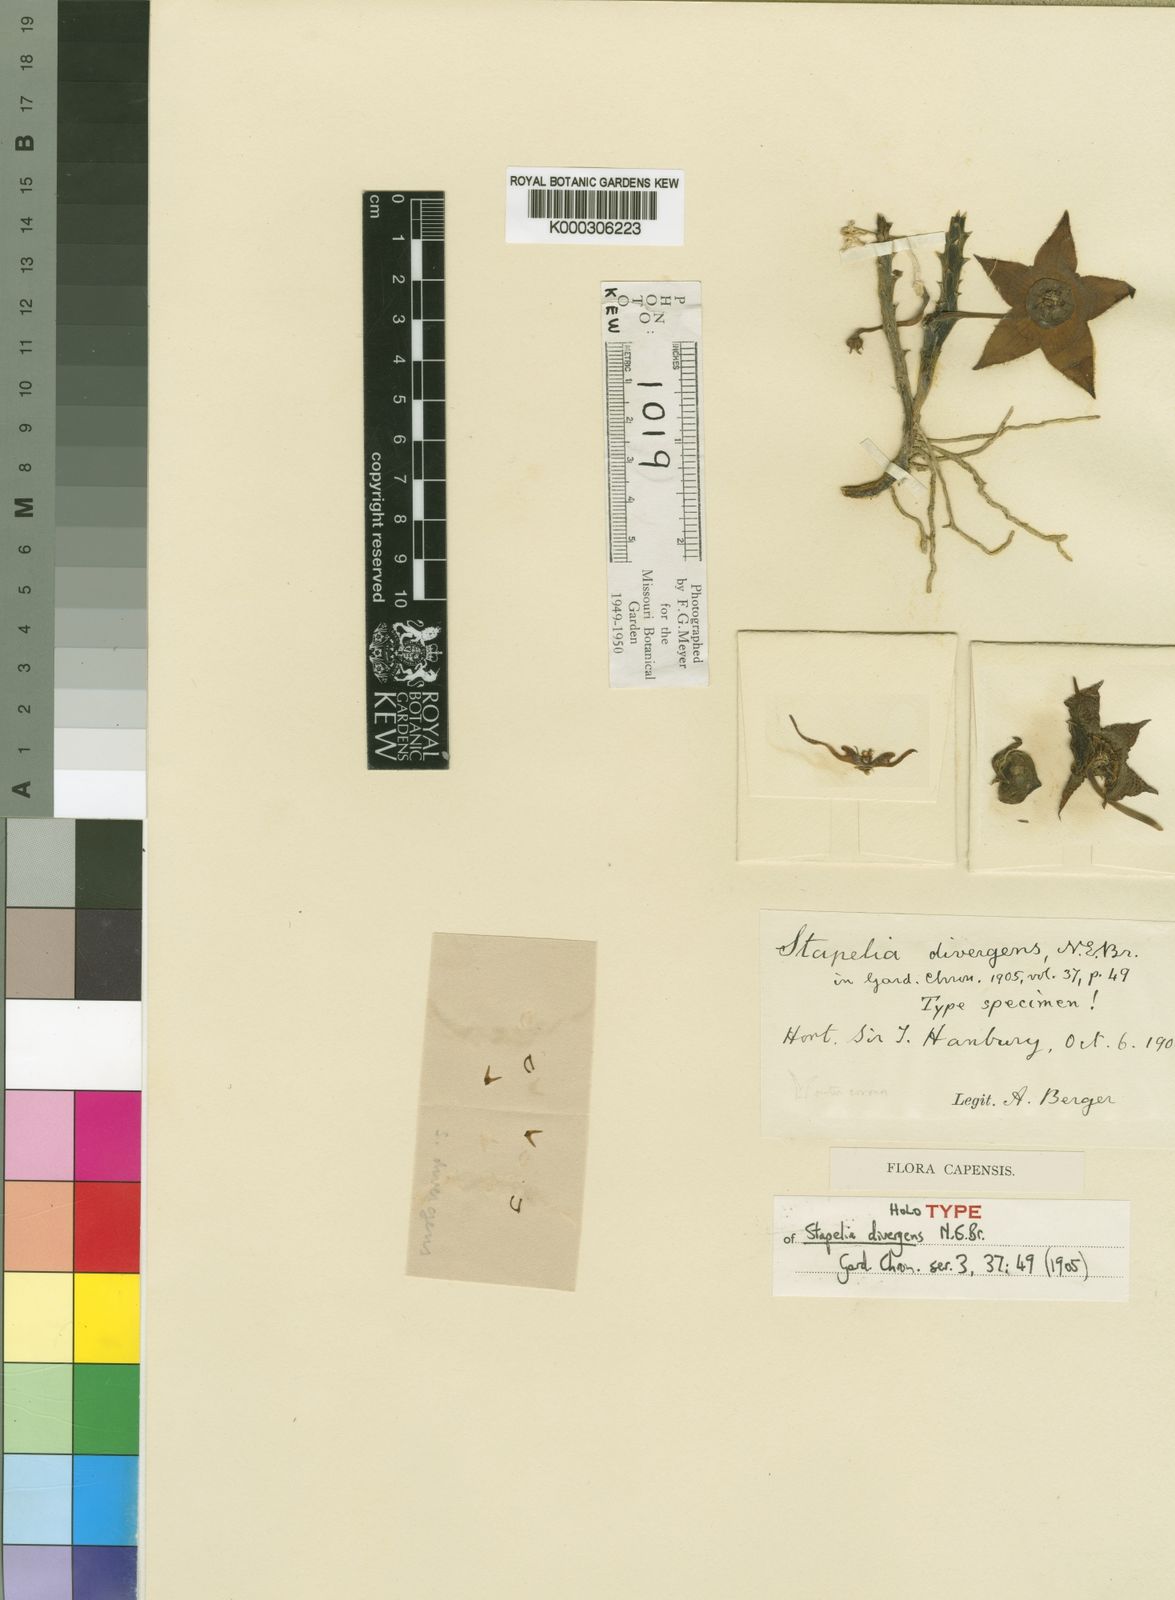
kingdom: Plantae
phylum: Tracheophyta
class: Magnoliopsida
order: Gentianales
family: Apocynaceae
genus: Stapelia
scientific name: Stapelia divergens
